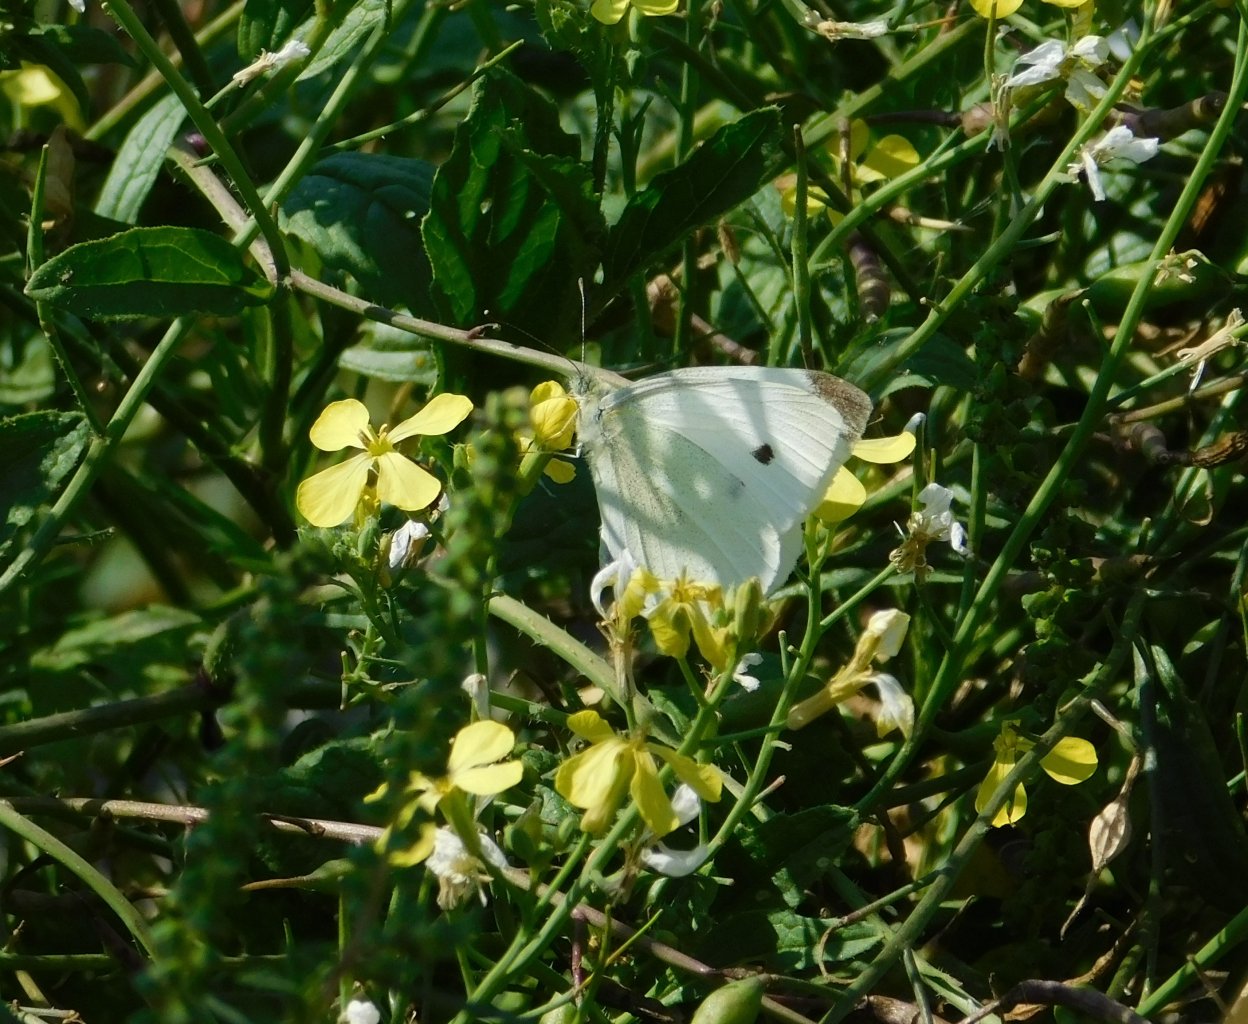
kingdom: Animalia
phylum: Arthropoda
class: Insecta
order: Lepidoptera
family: Pieridae
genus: Pieris
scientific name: Pieris rapae
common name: Cabbage White
